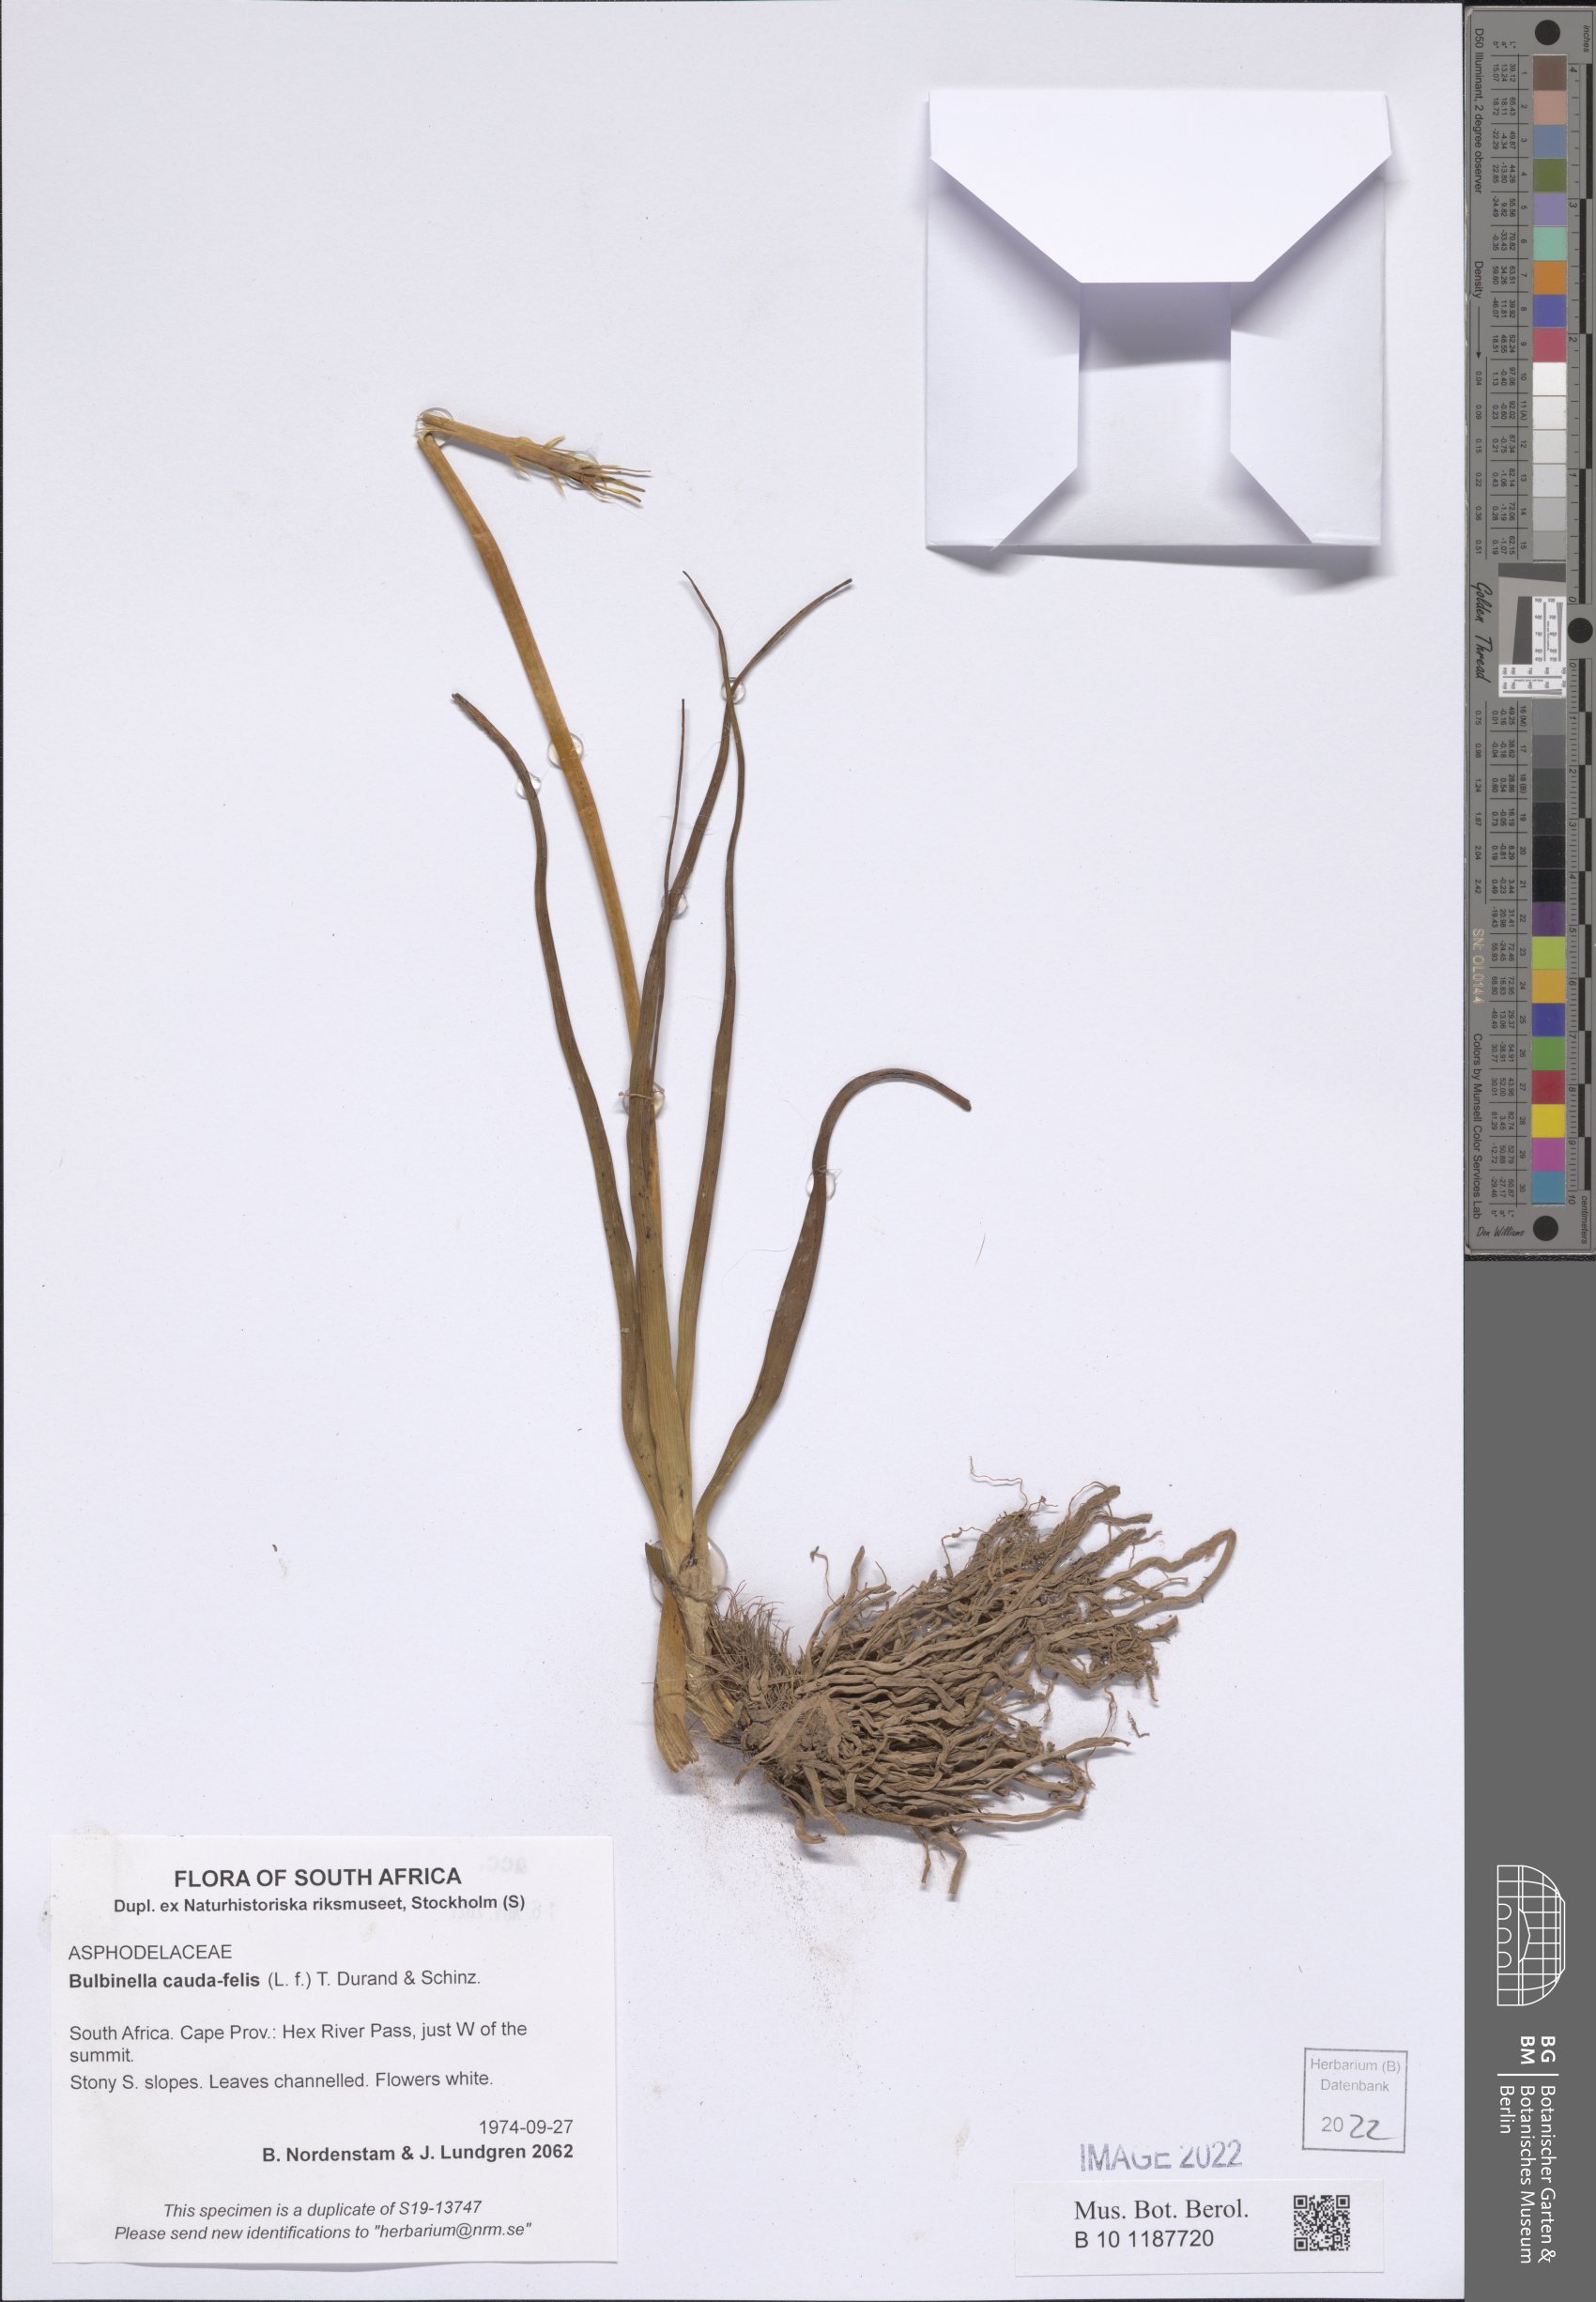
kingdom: Plantae
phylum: Tracheophyta
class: Liliopsida
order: Asparagales
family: Asphodelaceae
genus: Bulbinella
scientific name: Bulbinella cauda-felis
